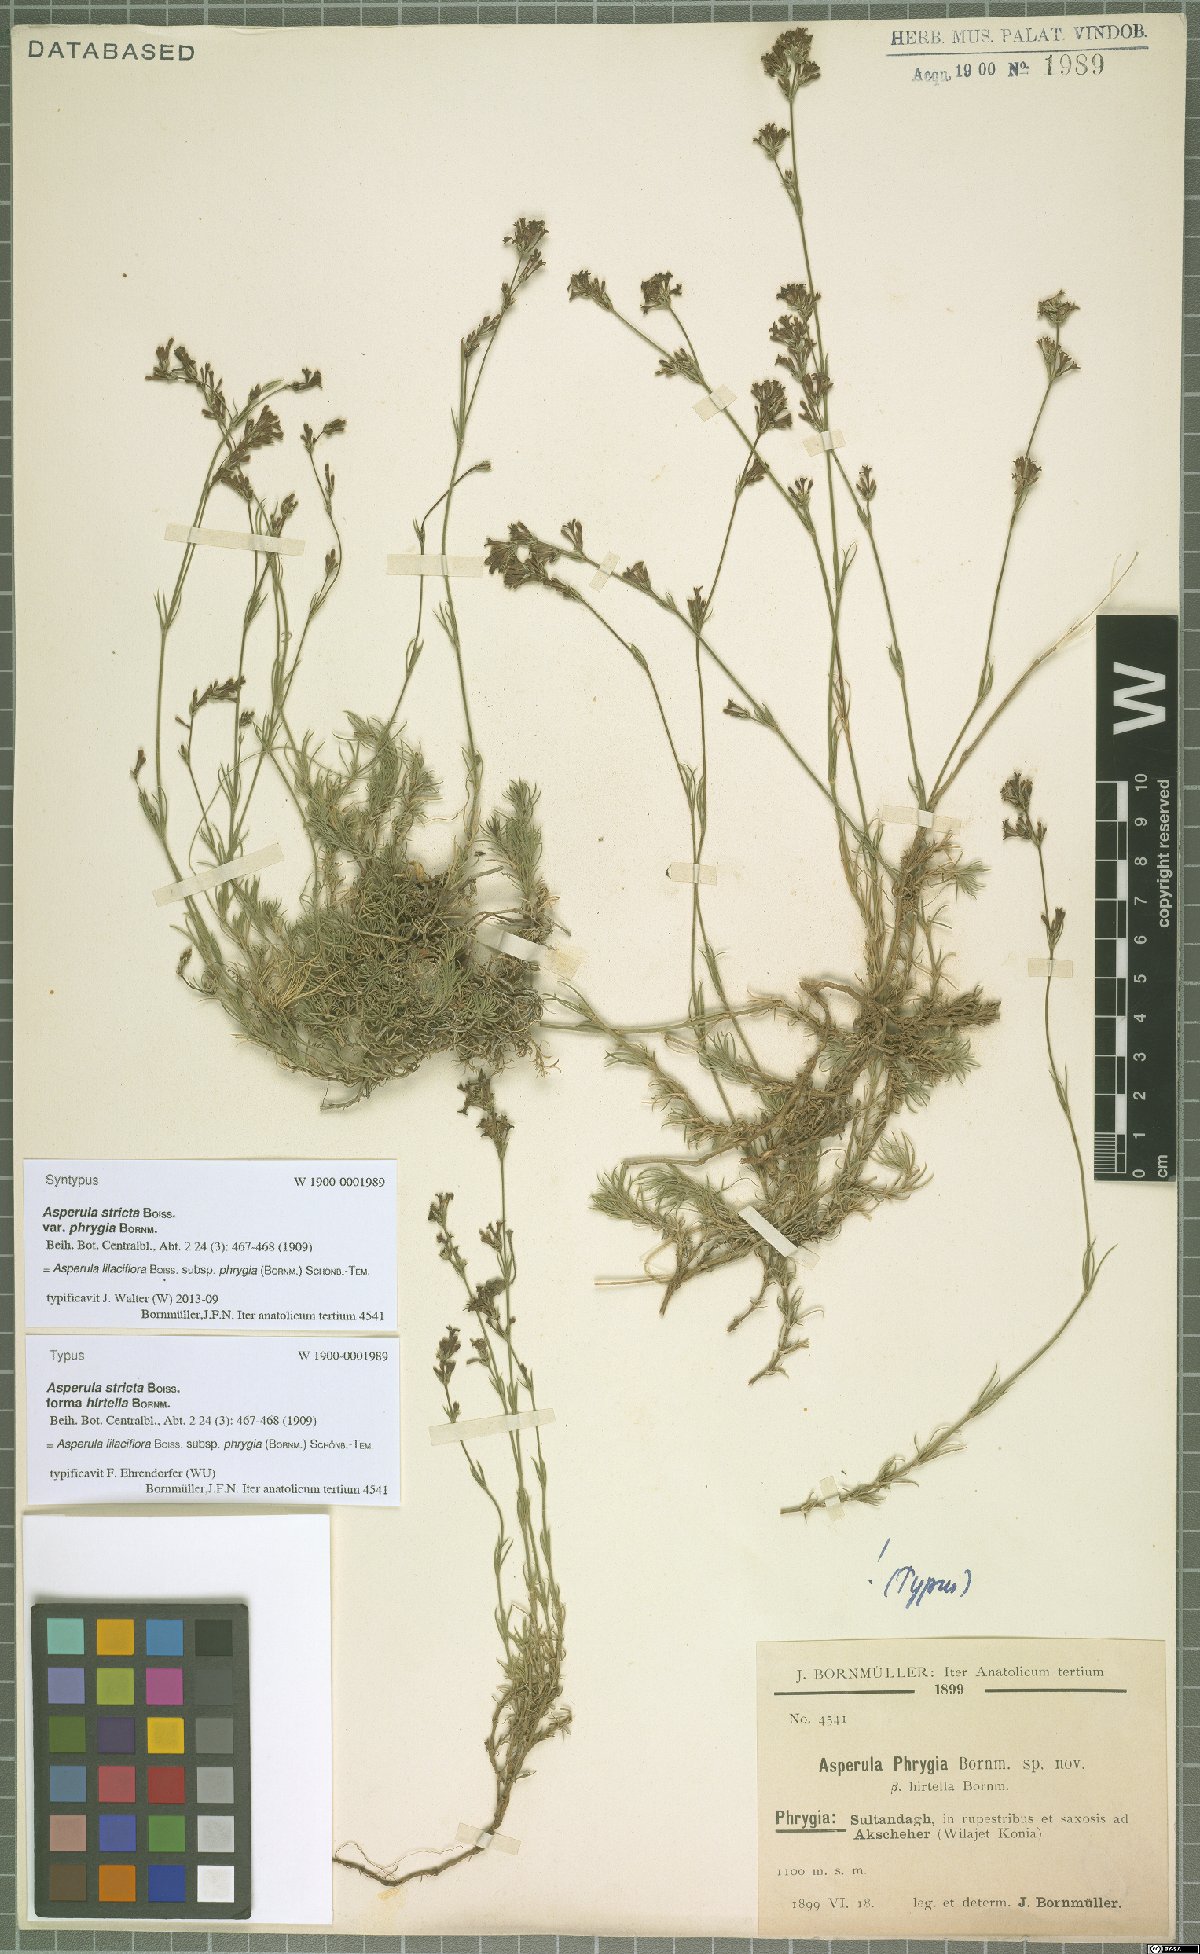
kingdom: Plantae
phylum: Tracheophyta
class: Magnoliopsida
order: Gentianales
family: Rubiaceae
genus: Cynanchica
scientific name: Cynanchica lilaciflora
